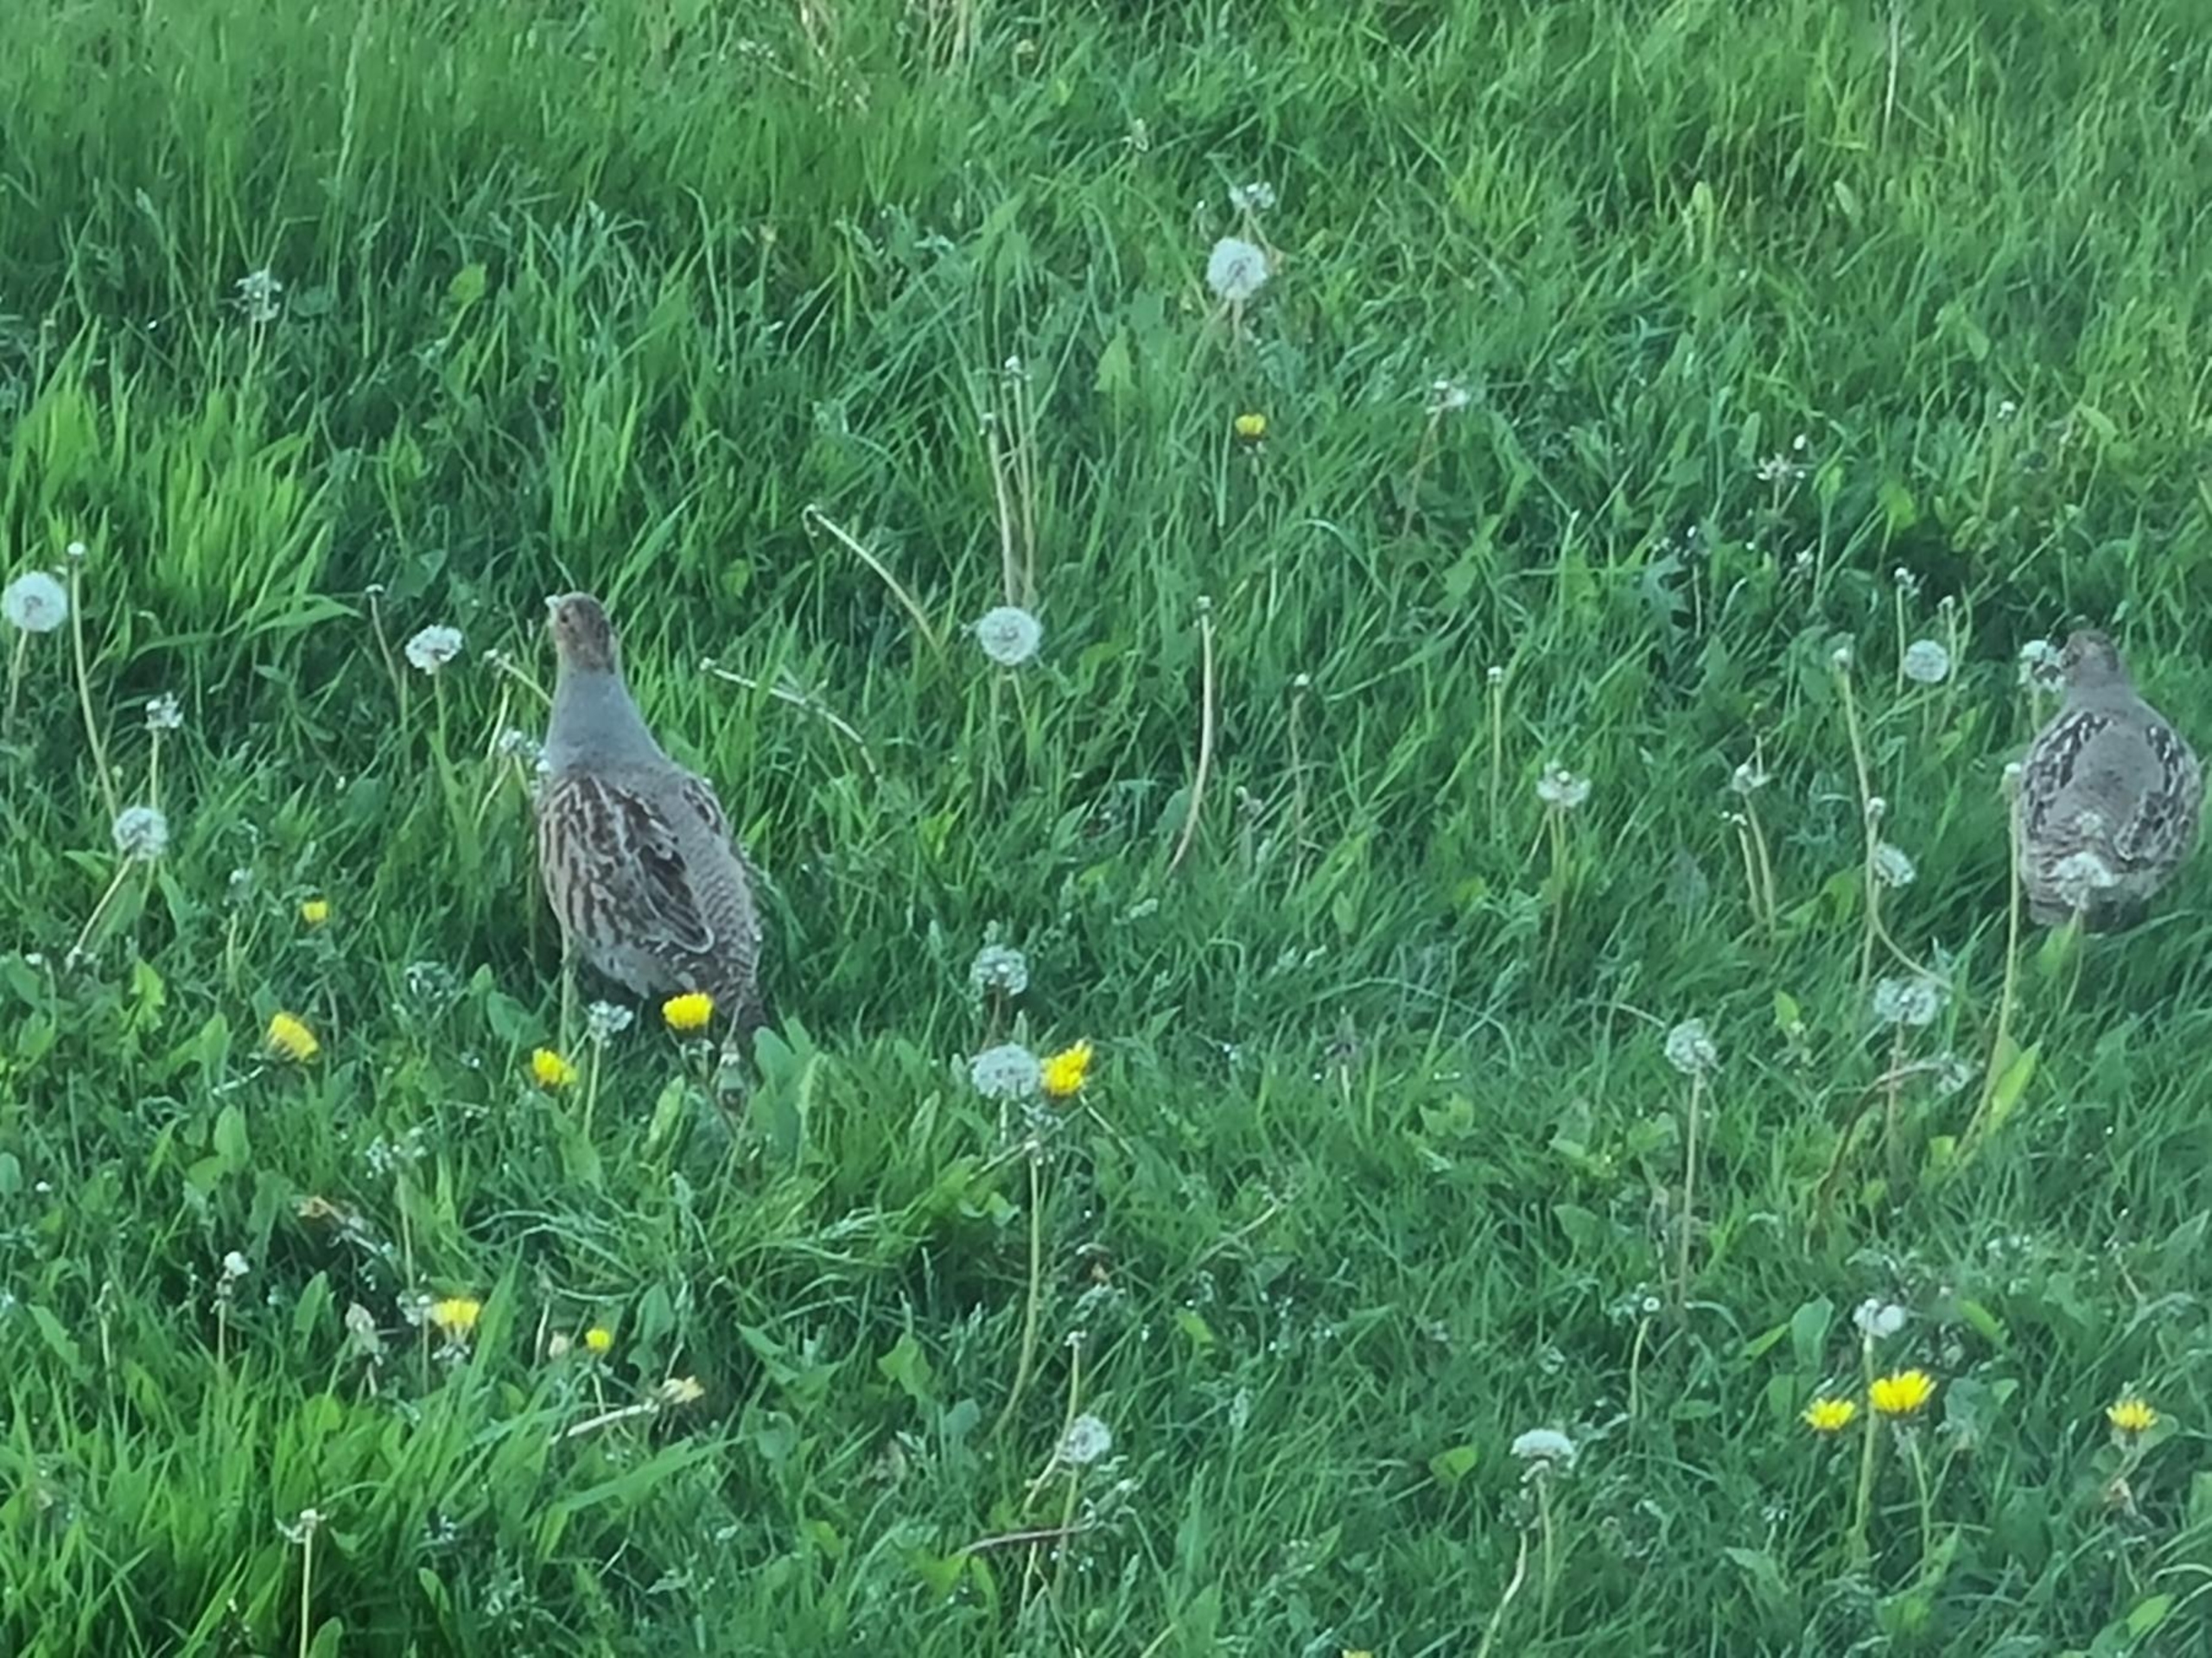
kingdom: Animalia
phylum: Chordata
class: Aves
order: Galliformes
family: Phasianidae
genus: Perdix
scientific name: Perdix perdix
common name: Agerhøne
